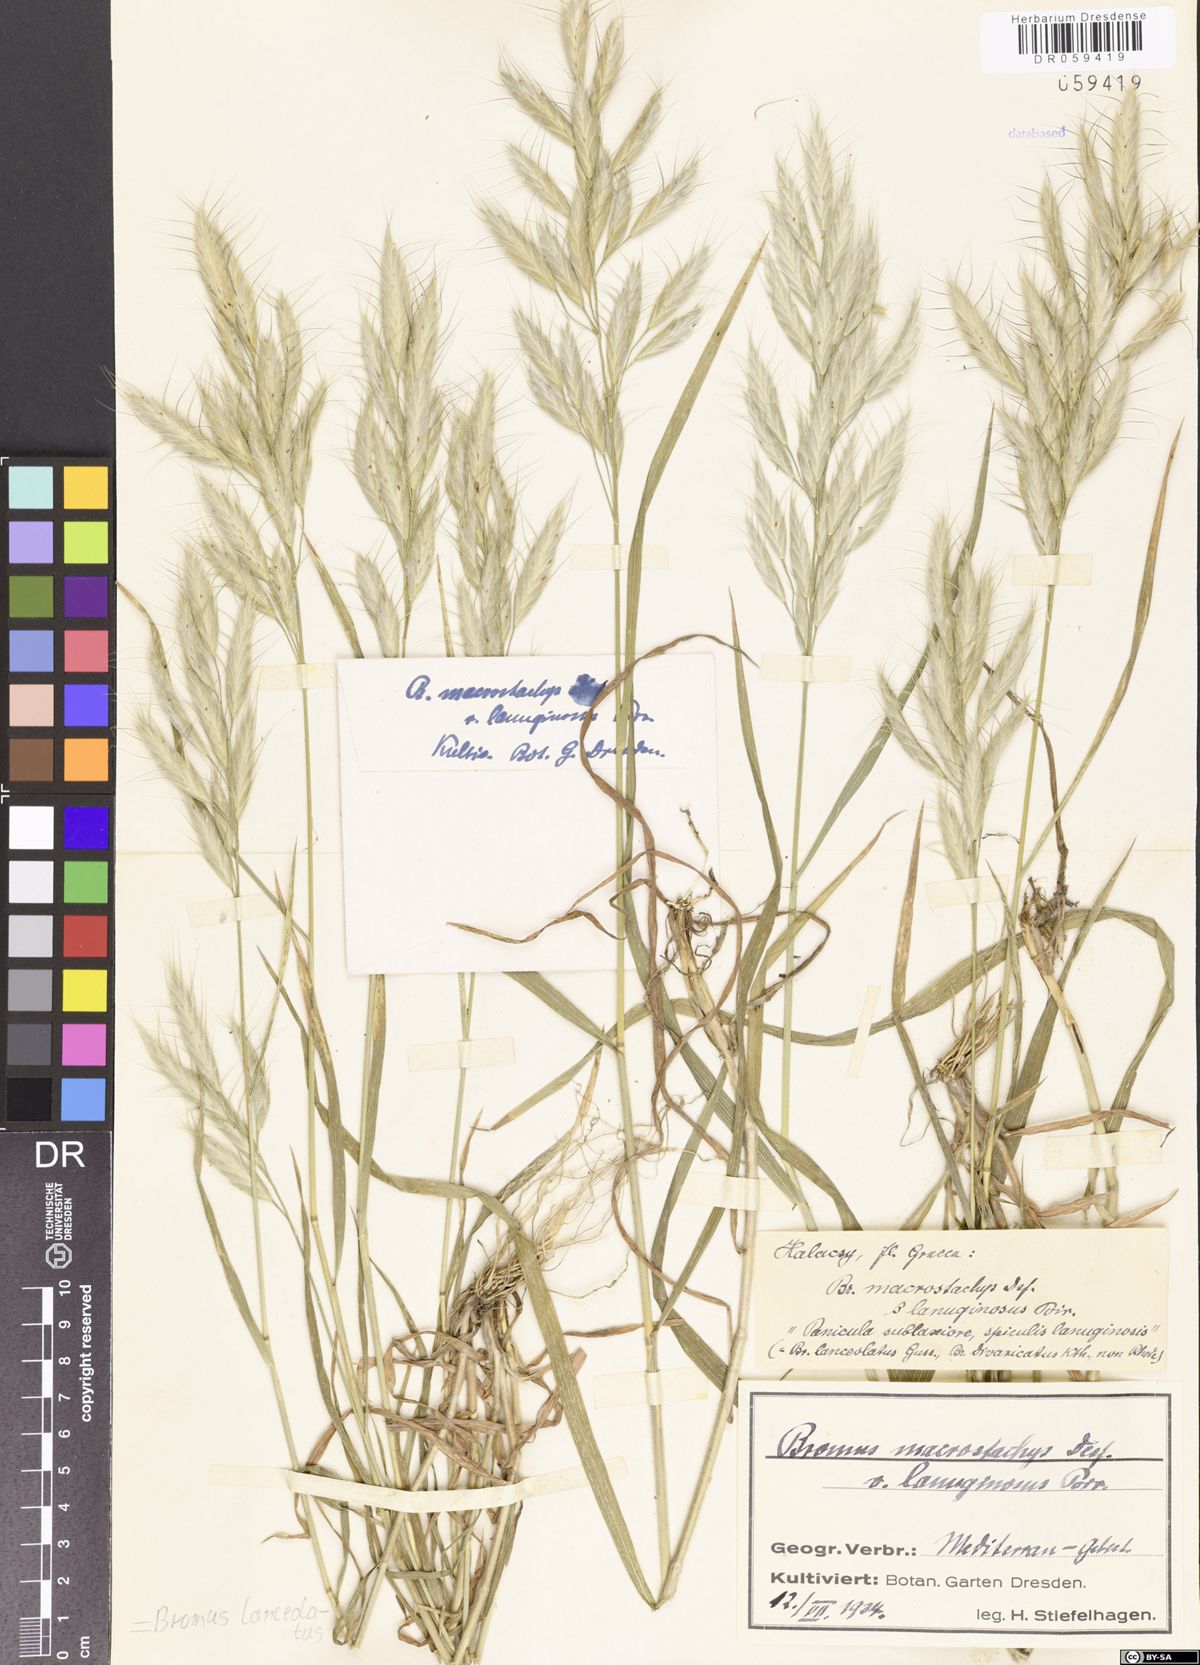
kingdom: Plantae
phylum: Tracheophyta
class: Liliopsida
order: Poales
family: Poaceae
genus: Bromus
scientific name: Bromus lanceolatus
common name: Mediterranean brome
